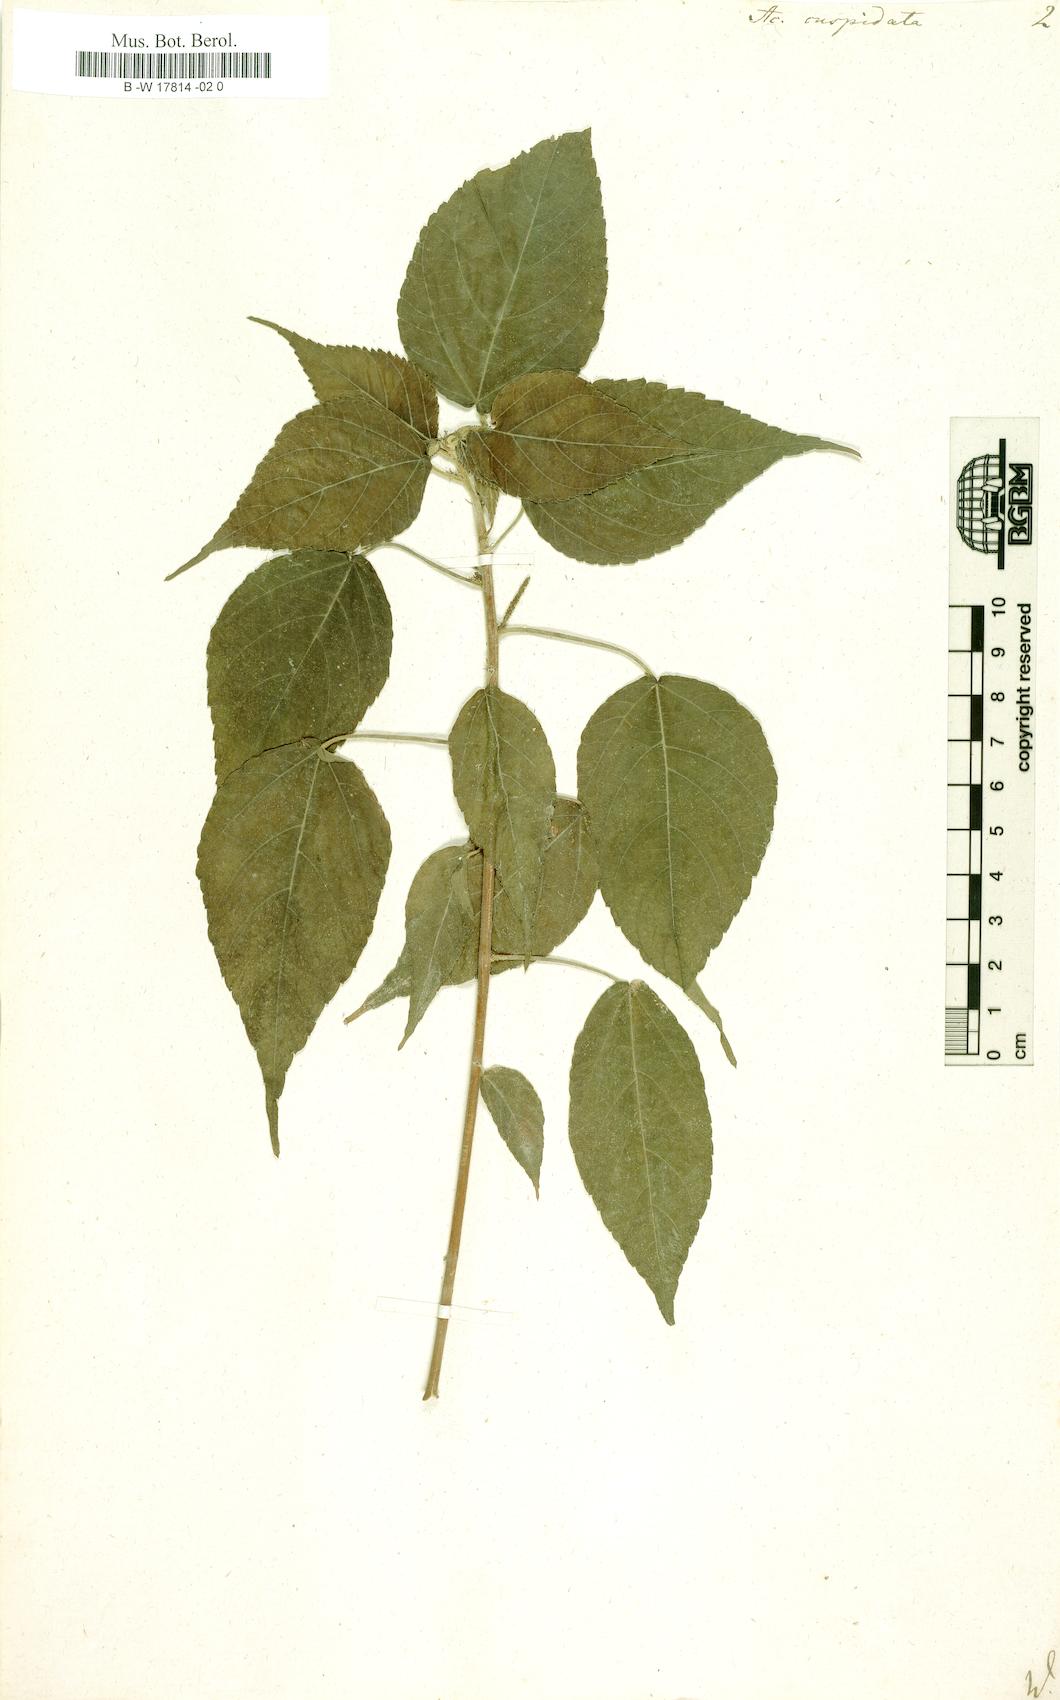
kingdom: Plantae
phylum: Tracheophyta
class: Magnoliopsida
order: Malpighiales
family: Euphorbiaceae
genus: Acalypha
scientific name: Acalypha cuspidata
